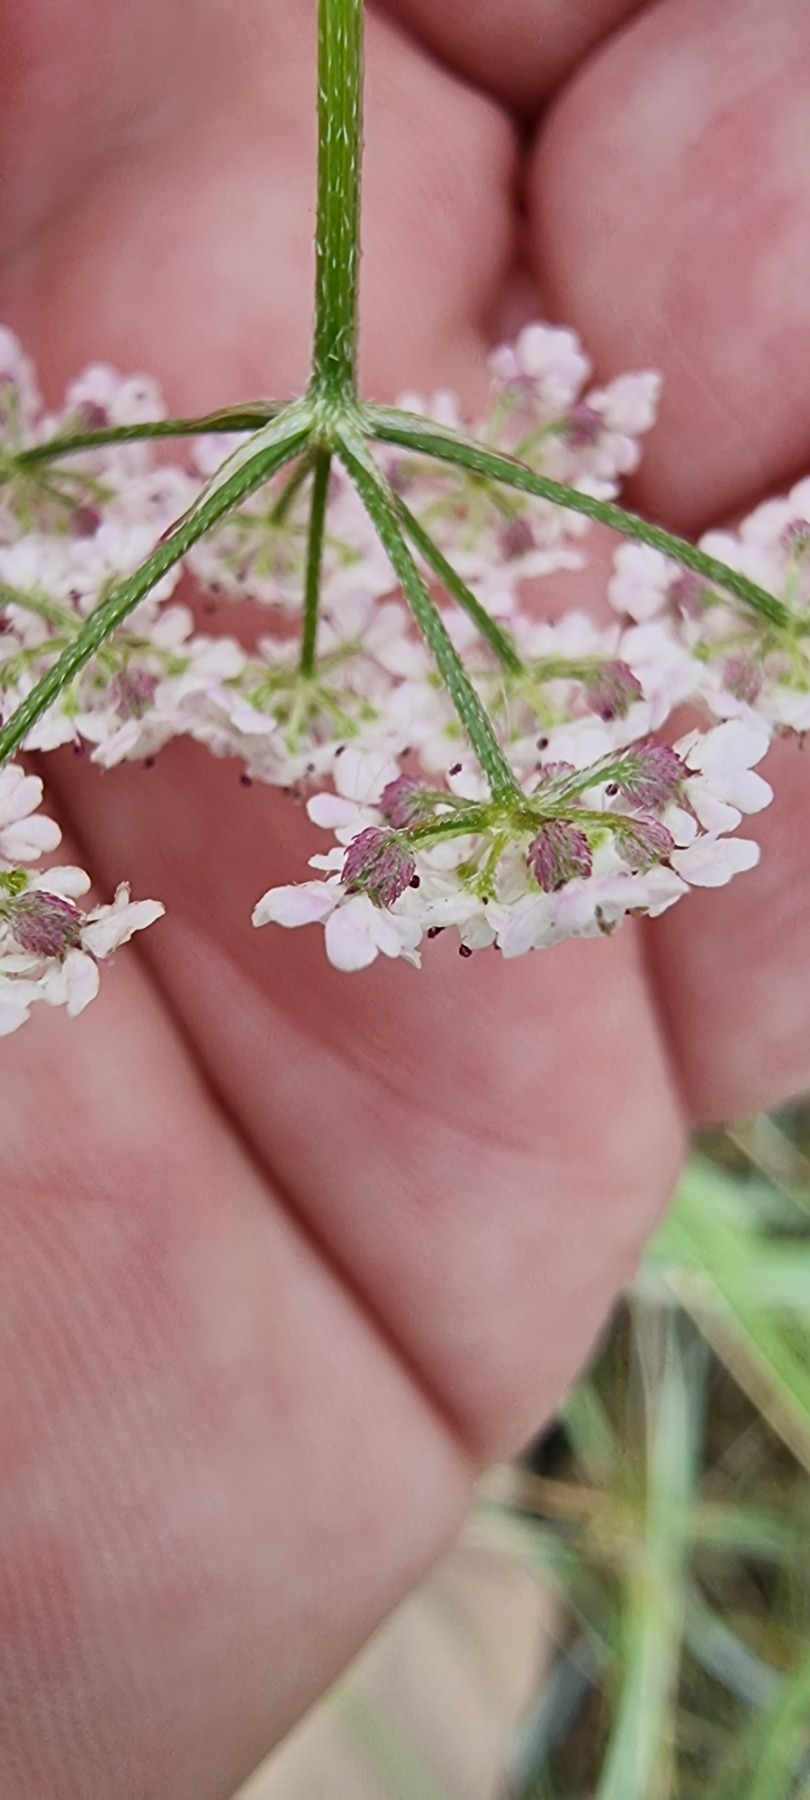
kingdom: Plantae
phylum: Tracheophyta
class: Magnoliopsida
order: Apiales
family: Apiaceae
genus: Torilis
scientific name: Torilis japonica
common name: Hvas randfrø
